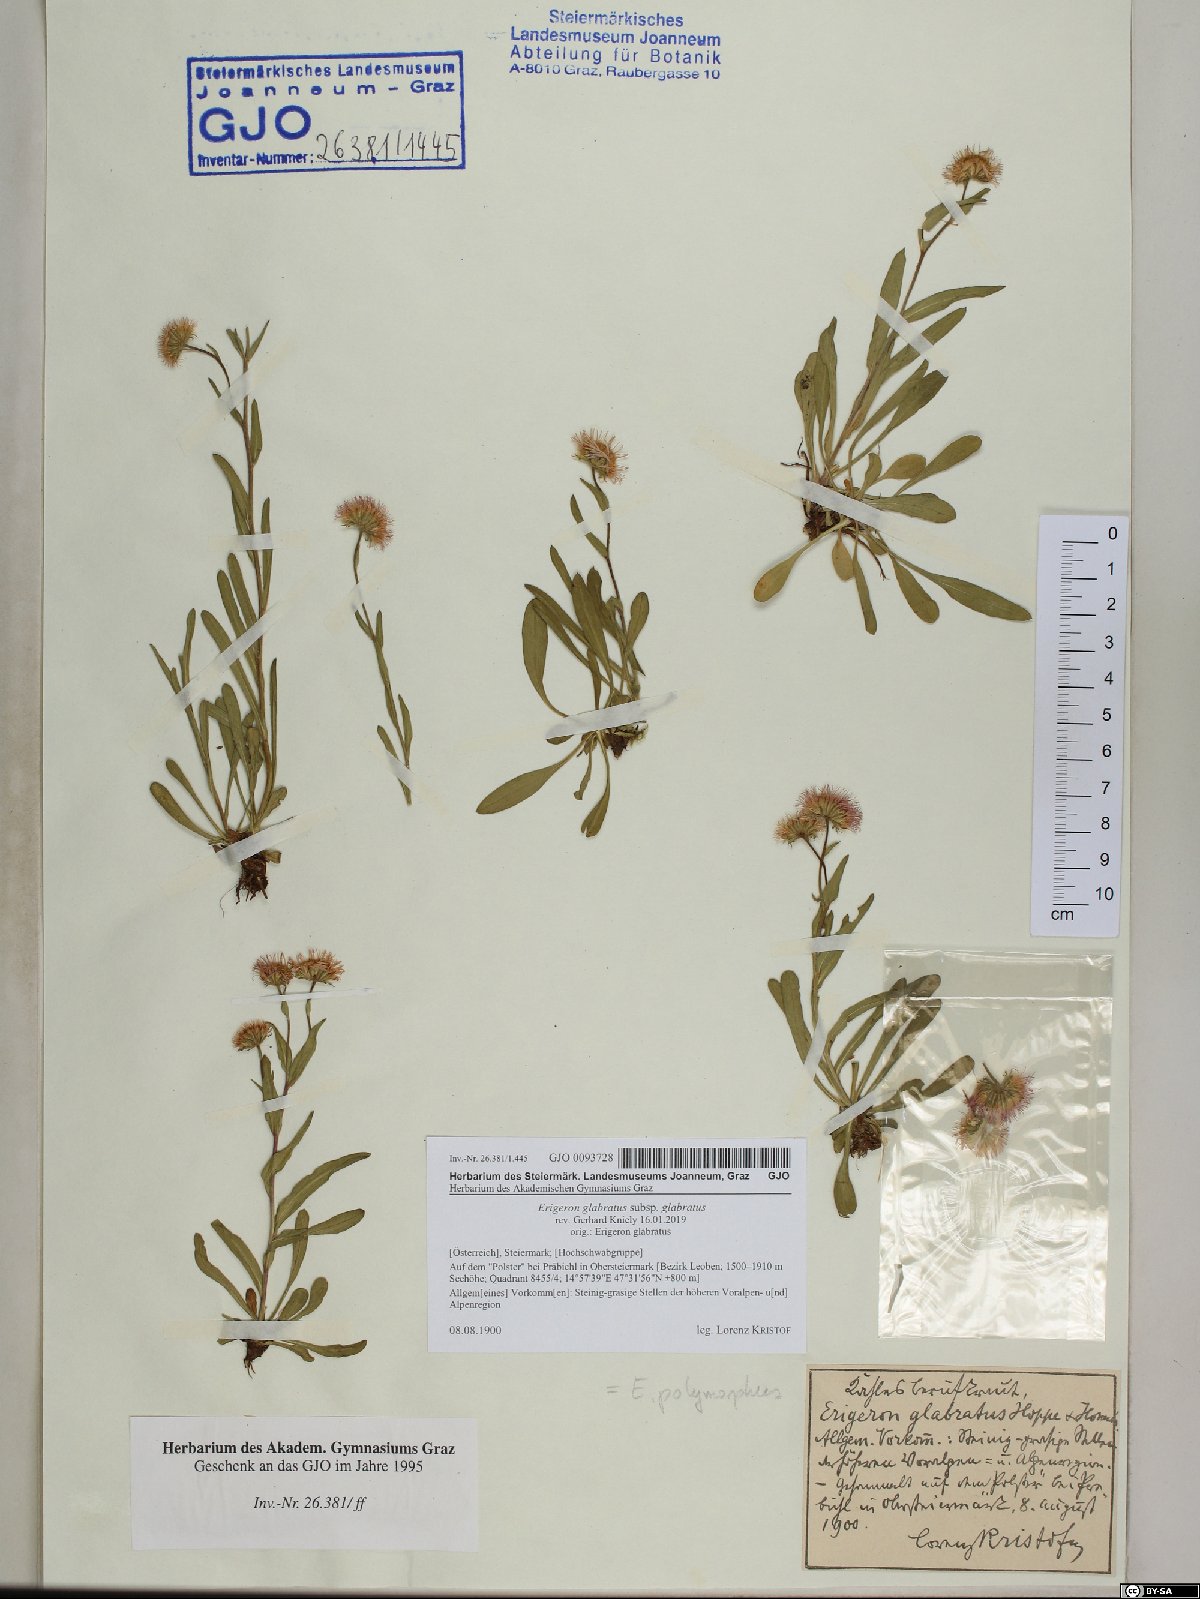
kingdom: Plantae
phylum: Tracheophyta
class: Magnoliopsida
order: Asterales
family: Asteraceae
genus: Erigeron
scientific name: Erigeron glabratus
